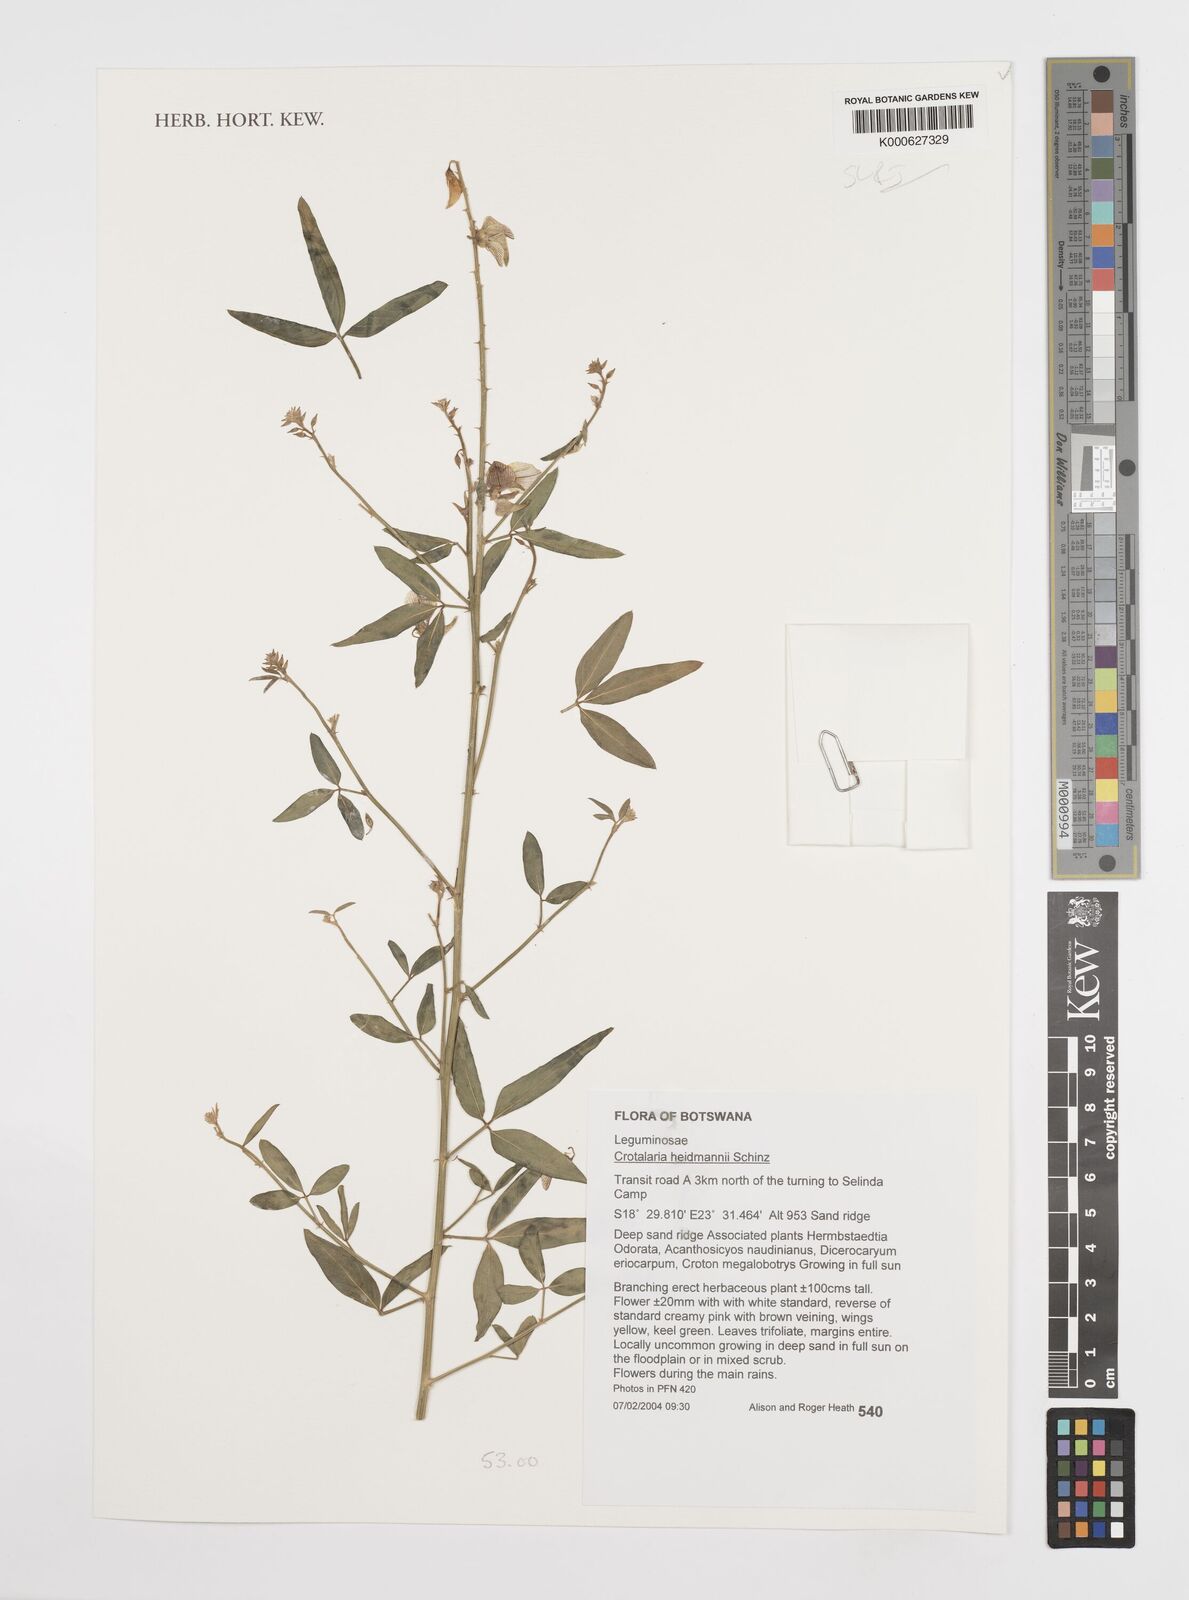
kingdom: Plantae
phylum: Tracheophyta
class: Magnoliopsida
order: Fabales
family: Fabaceae
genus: Crotalaria
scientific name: Crotalaria heidmannii
